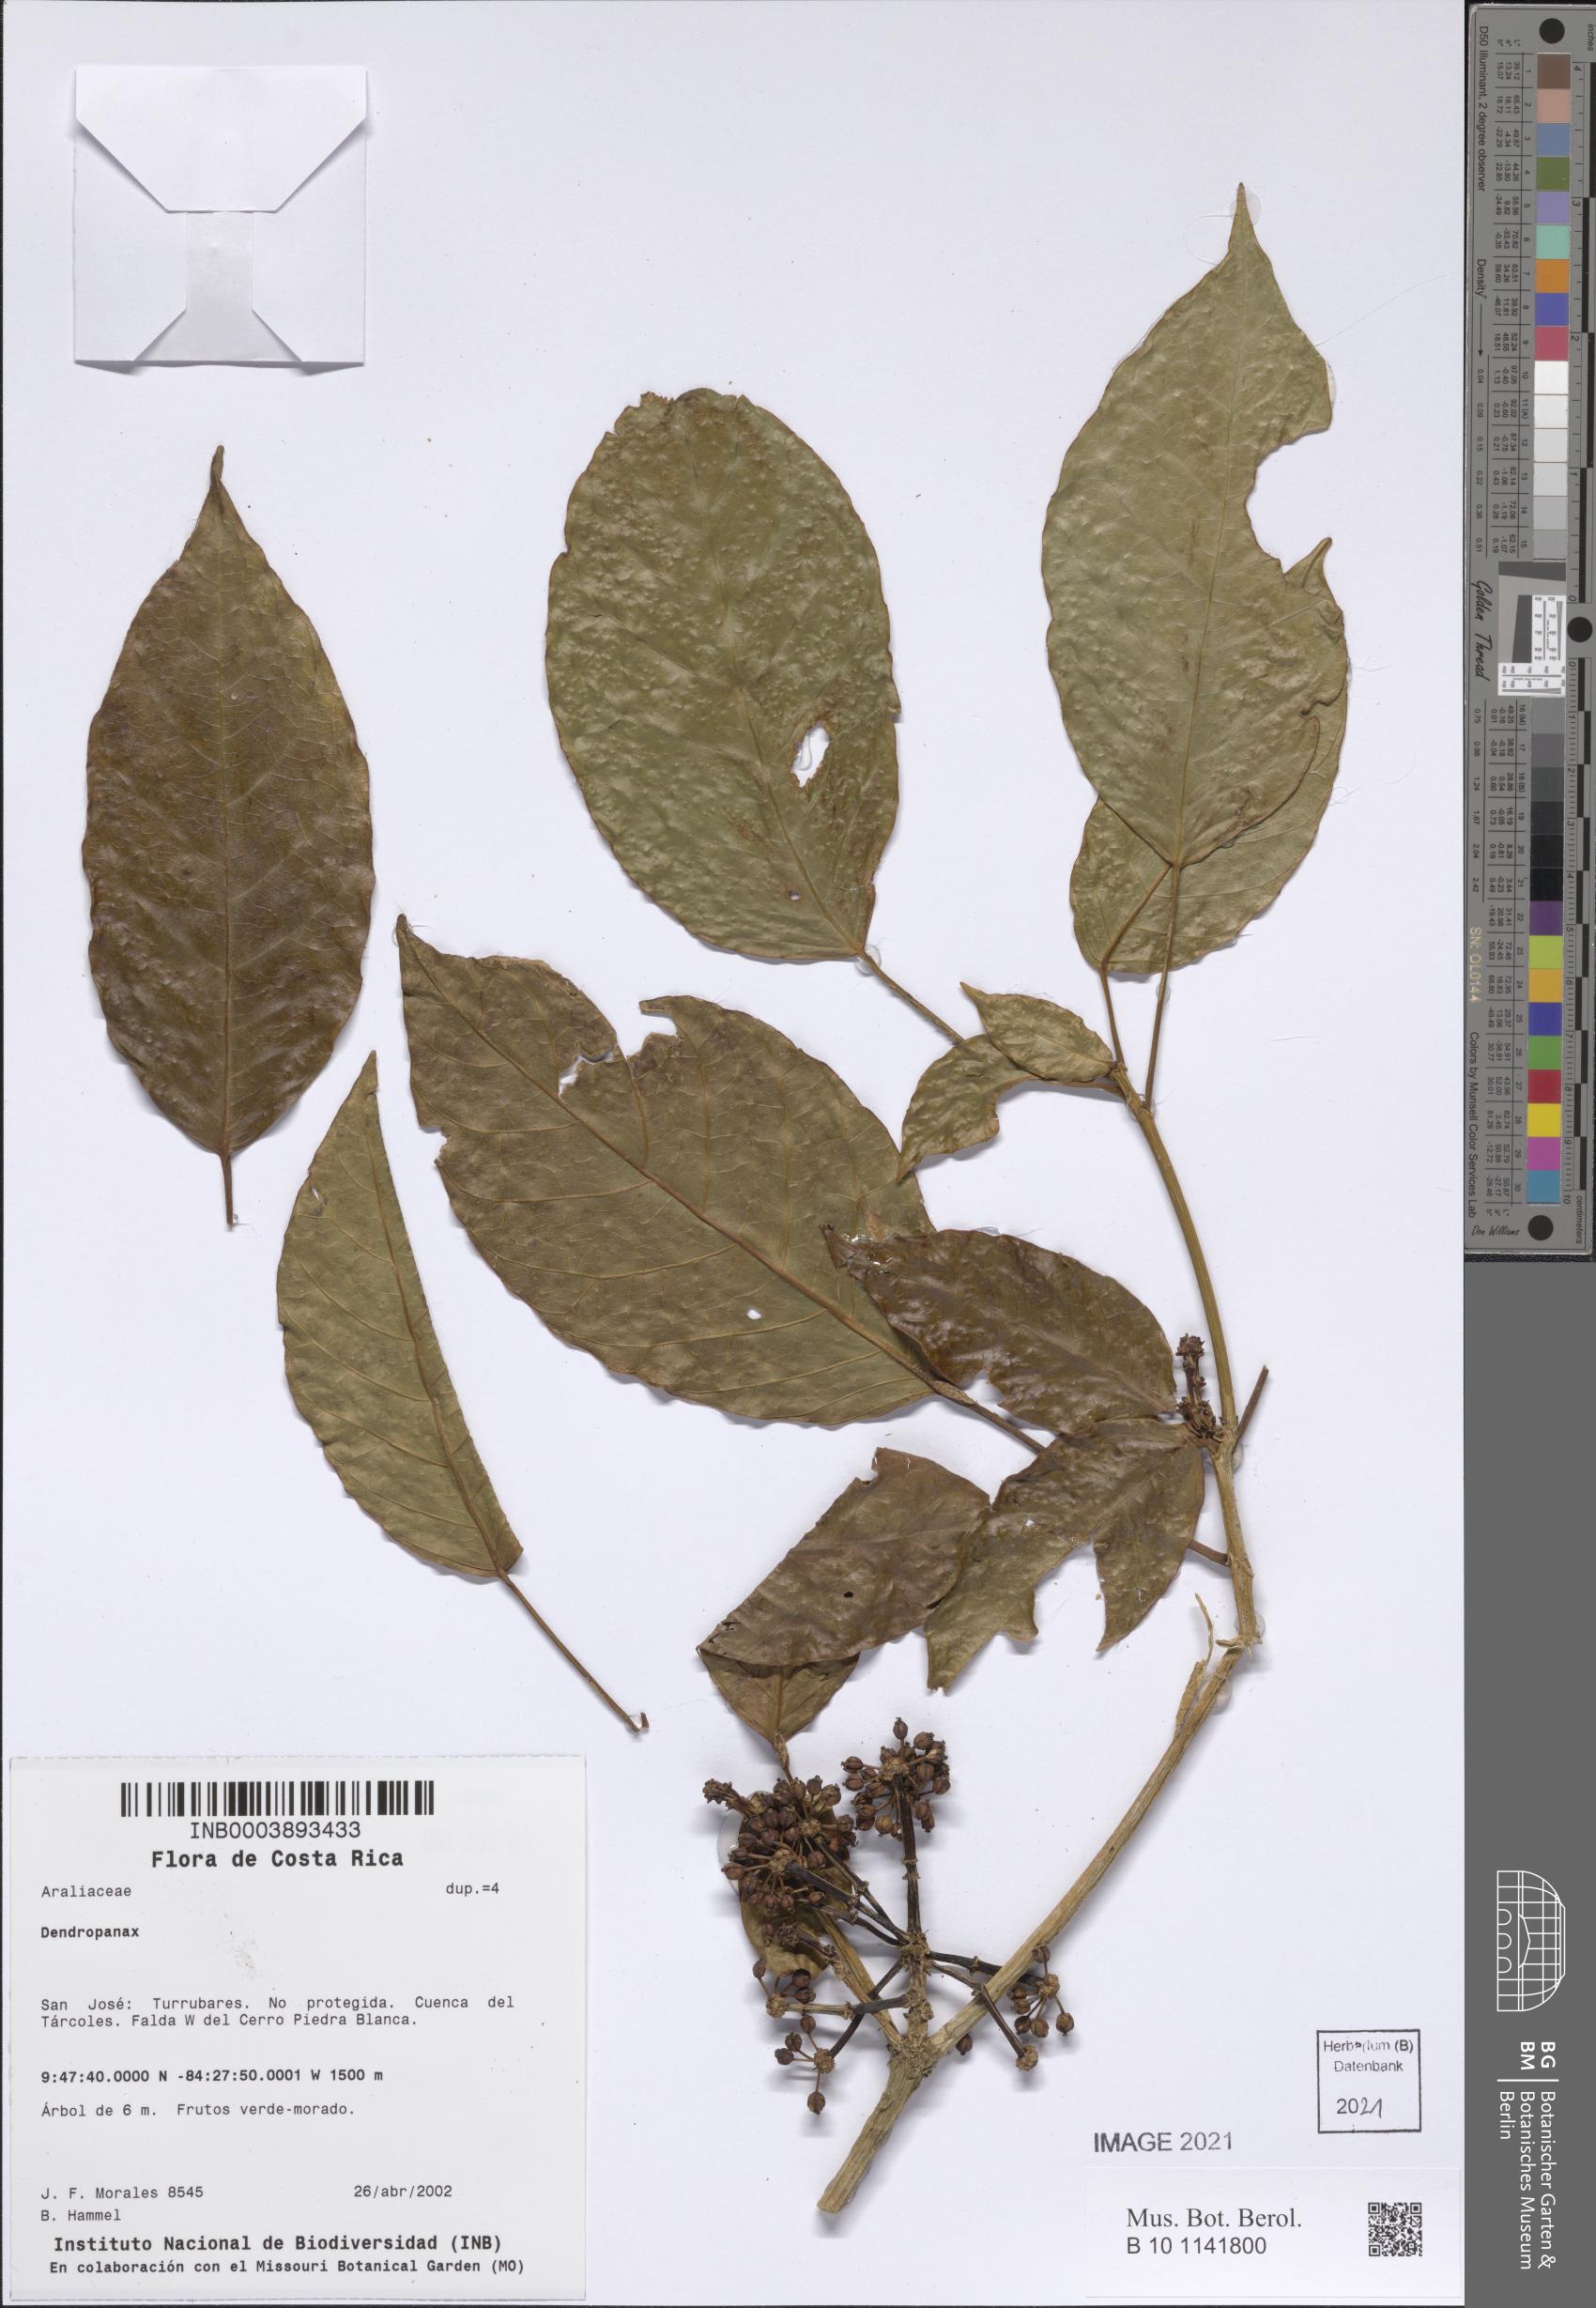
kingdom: Plantae
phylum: Tracheophyta
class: Magnoliopsida
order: Apiales
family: Araliaceae
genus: Dendropanax
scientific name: Dendropanax
